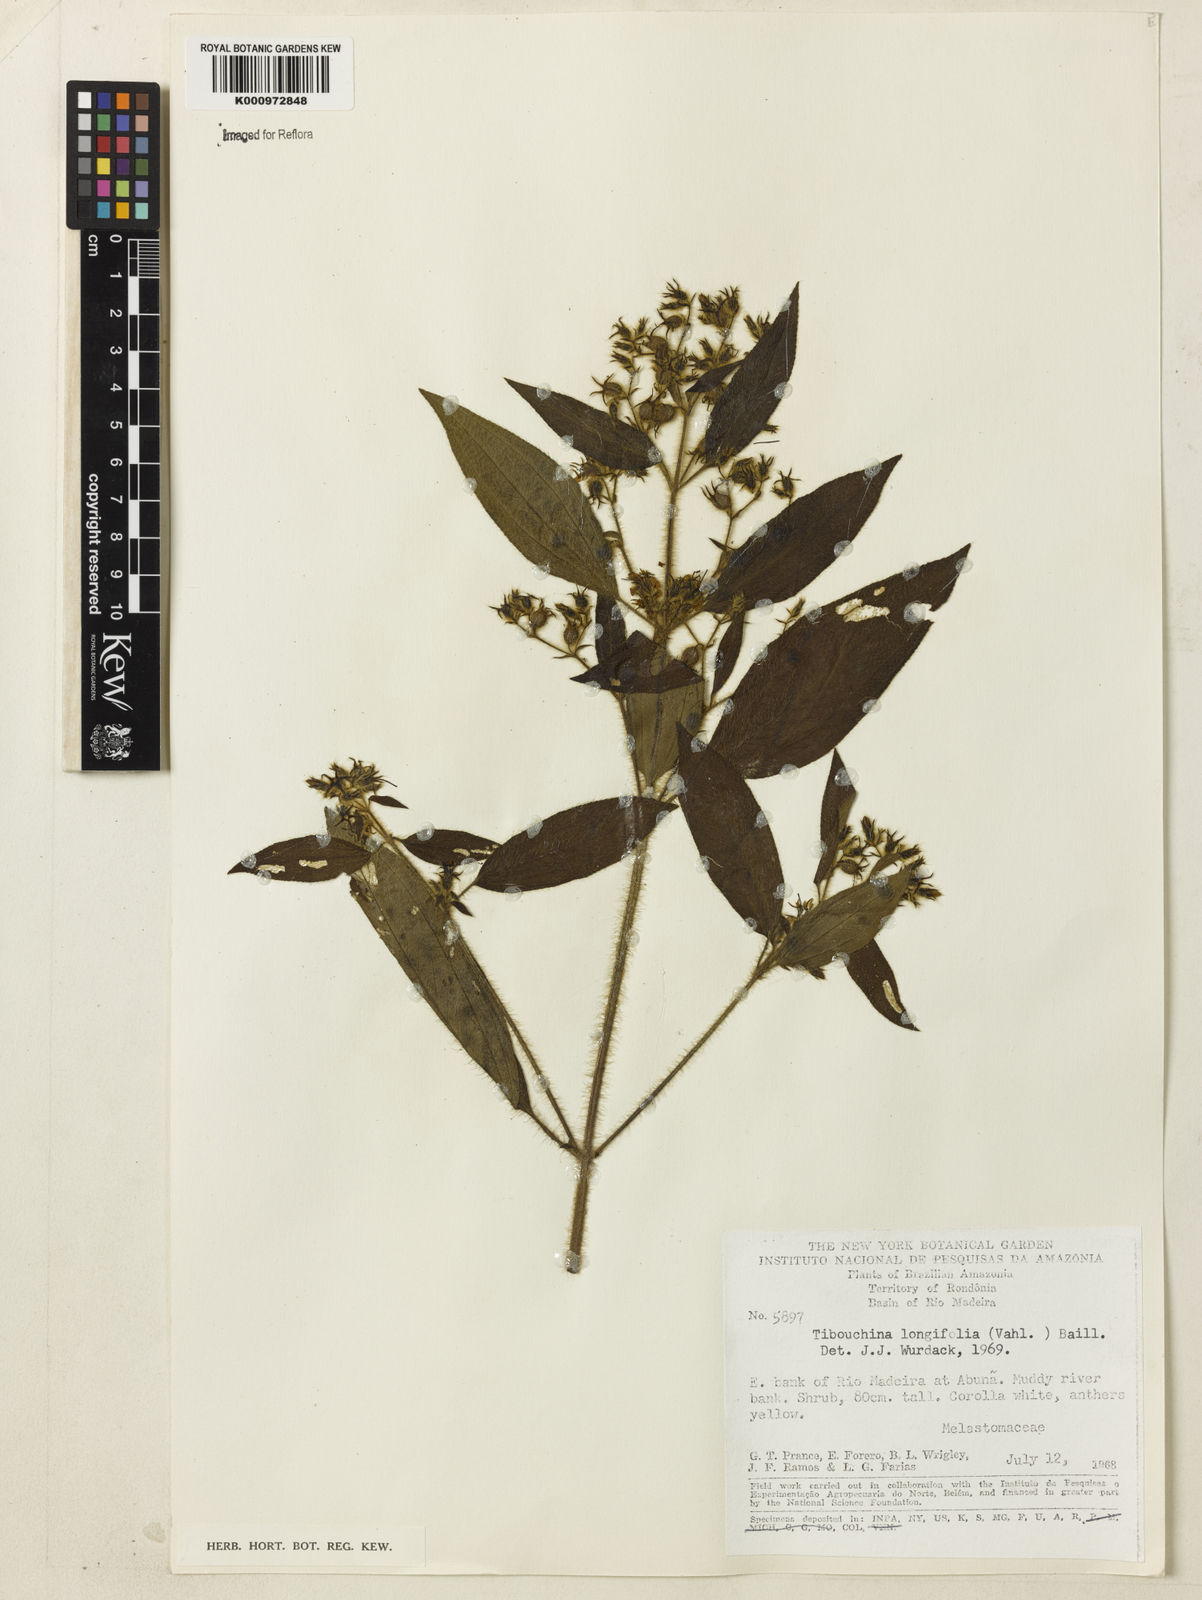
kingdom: Plantae
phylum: Tracheophyta
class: Magnoliopsida
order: Myrtales
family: Melastomataceae
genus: Chaetogastra
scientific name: Chaetogastra longifolia
